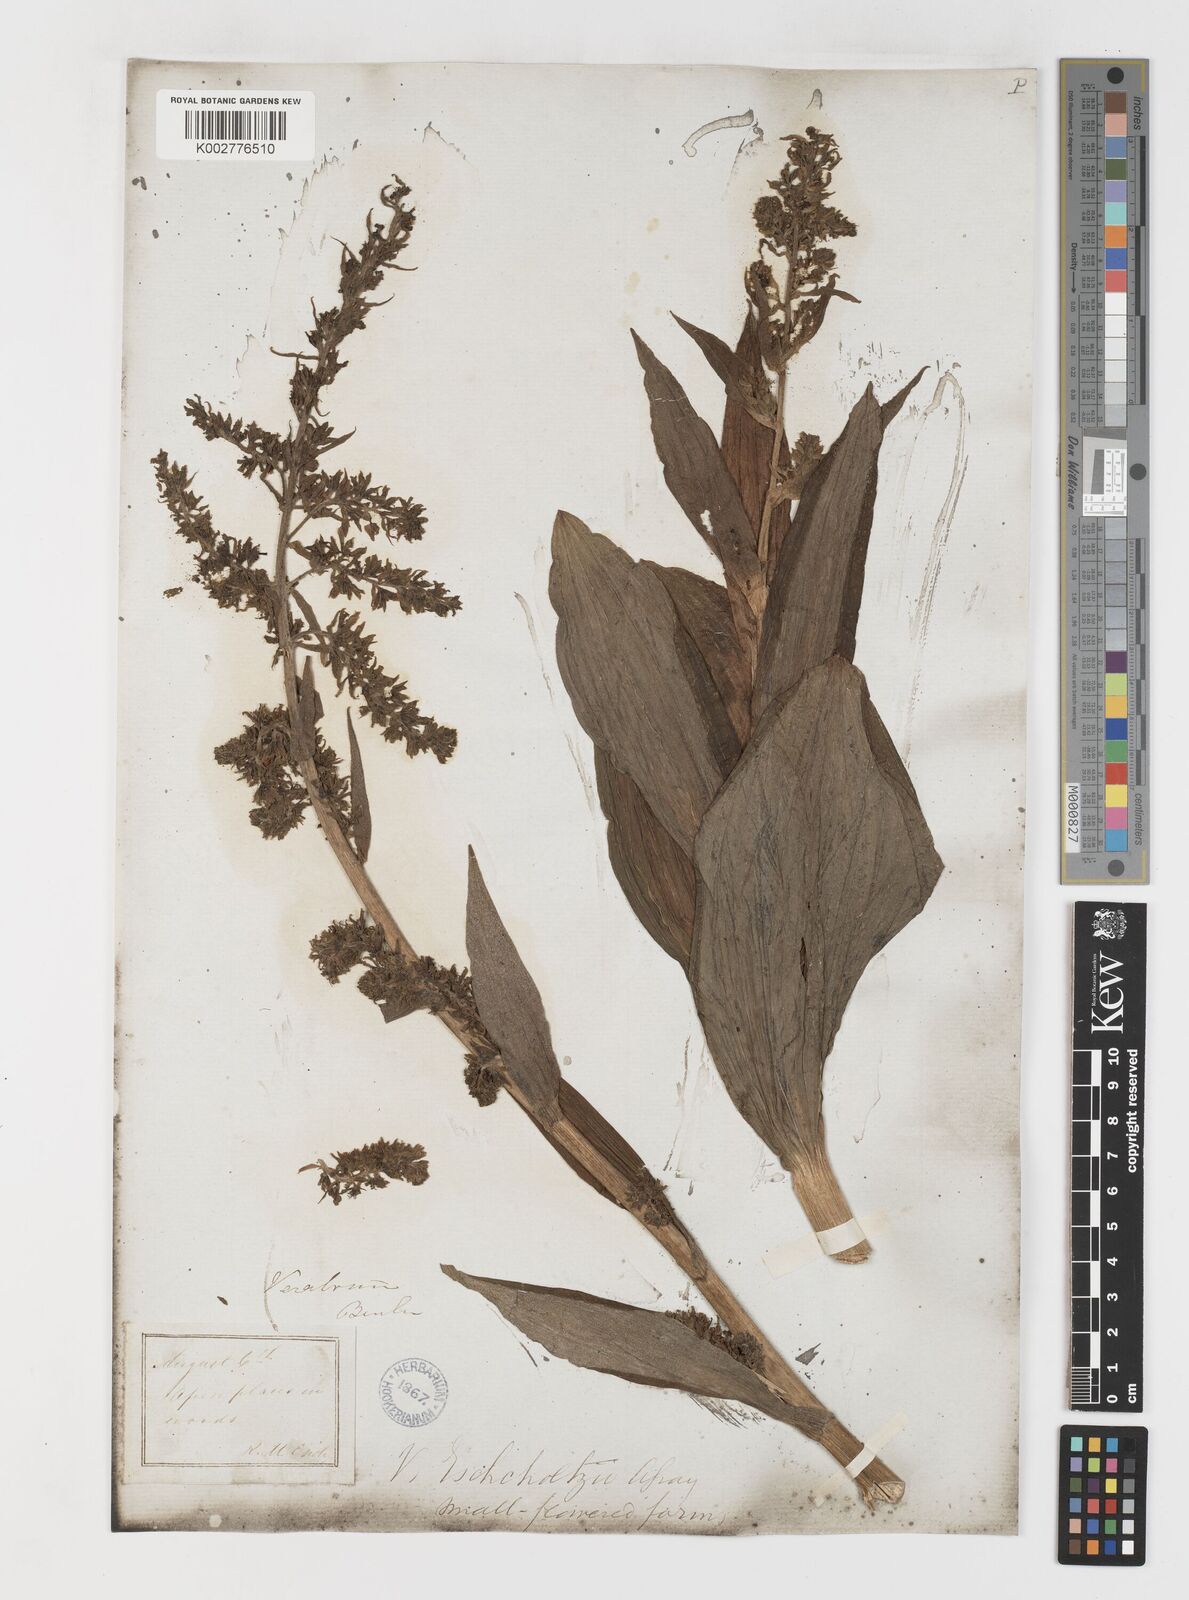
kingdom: Plantae
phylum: Tracheophyta
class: Liliopsida
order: Liliales
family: Melanthiaceae
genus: Veratrum
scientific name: Veratrum viride
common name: American false hellebore
